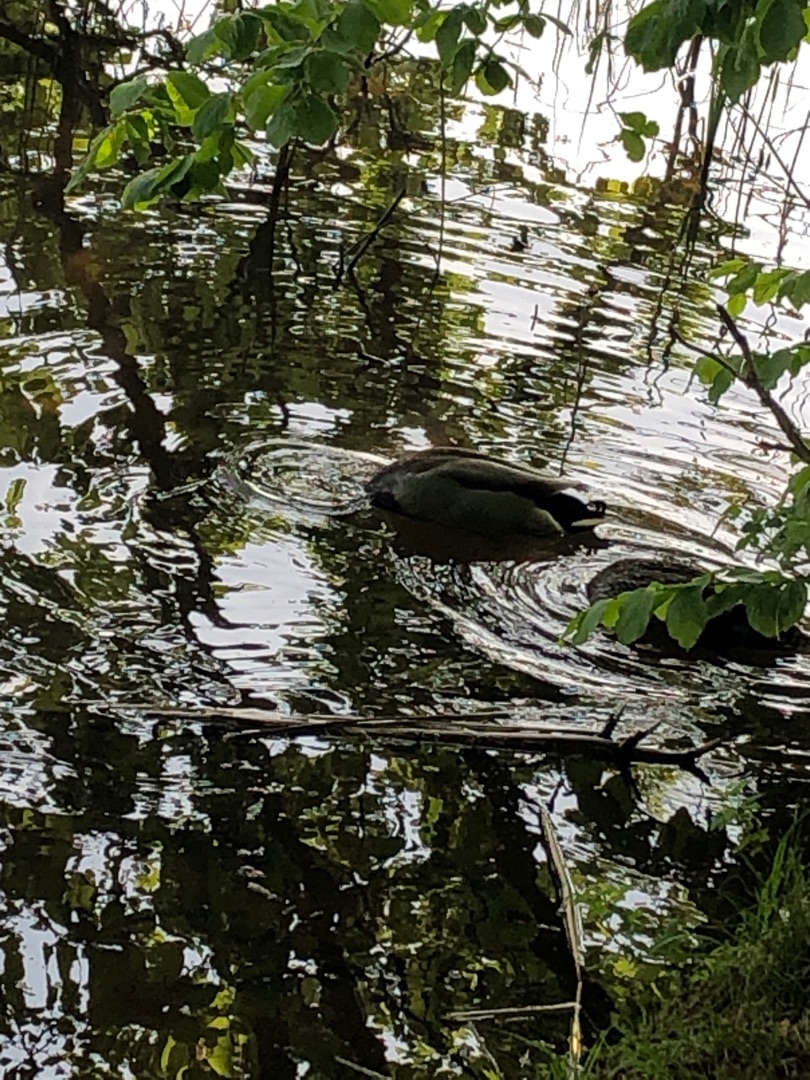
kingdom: Animalia
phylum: Chordata
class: Aves
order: Anseriformes
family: Anatidae
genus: Anas
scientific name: Anas platyrhynchos
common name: Gråand
